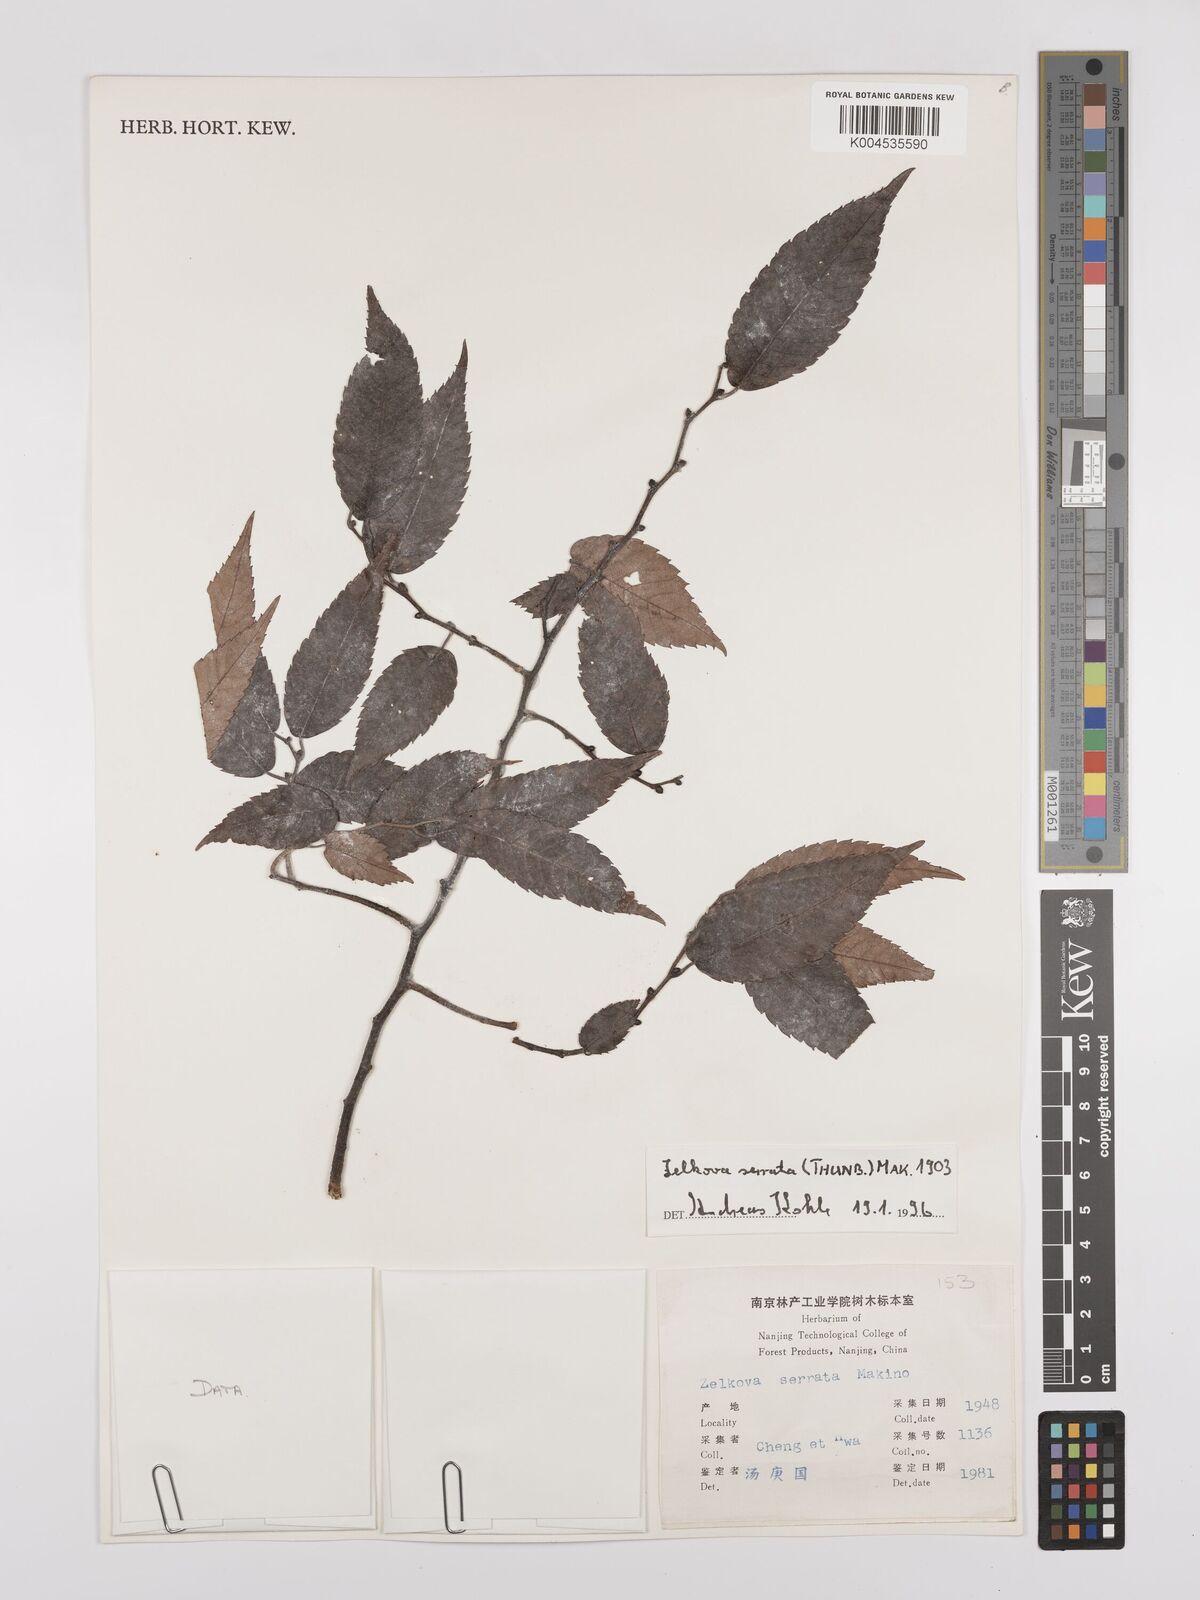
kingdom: Plantae
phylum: Tracheophyta
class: Magnoliopsida
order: Rosales
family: Ulmaceae
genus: Zelkova
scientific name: Zelkova serrata
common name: Japanese zelkova
